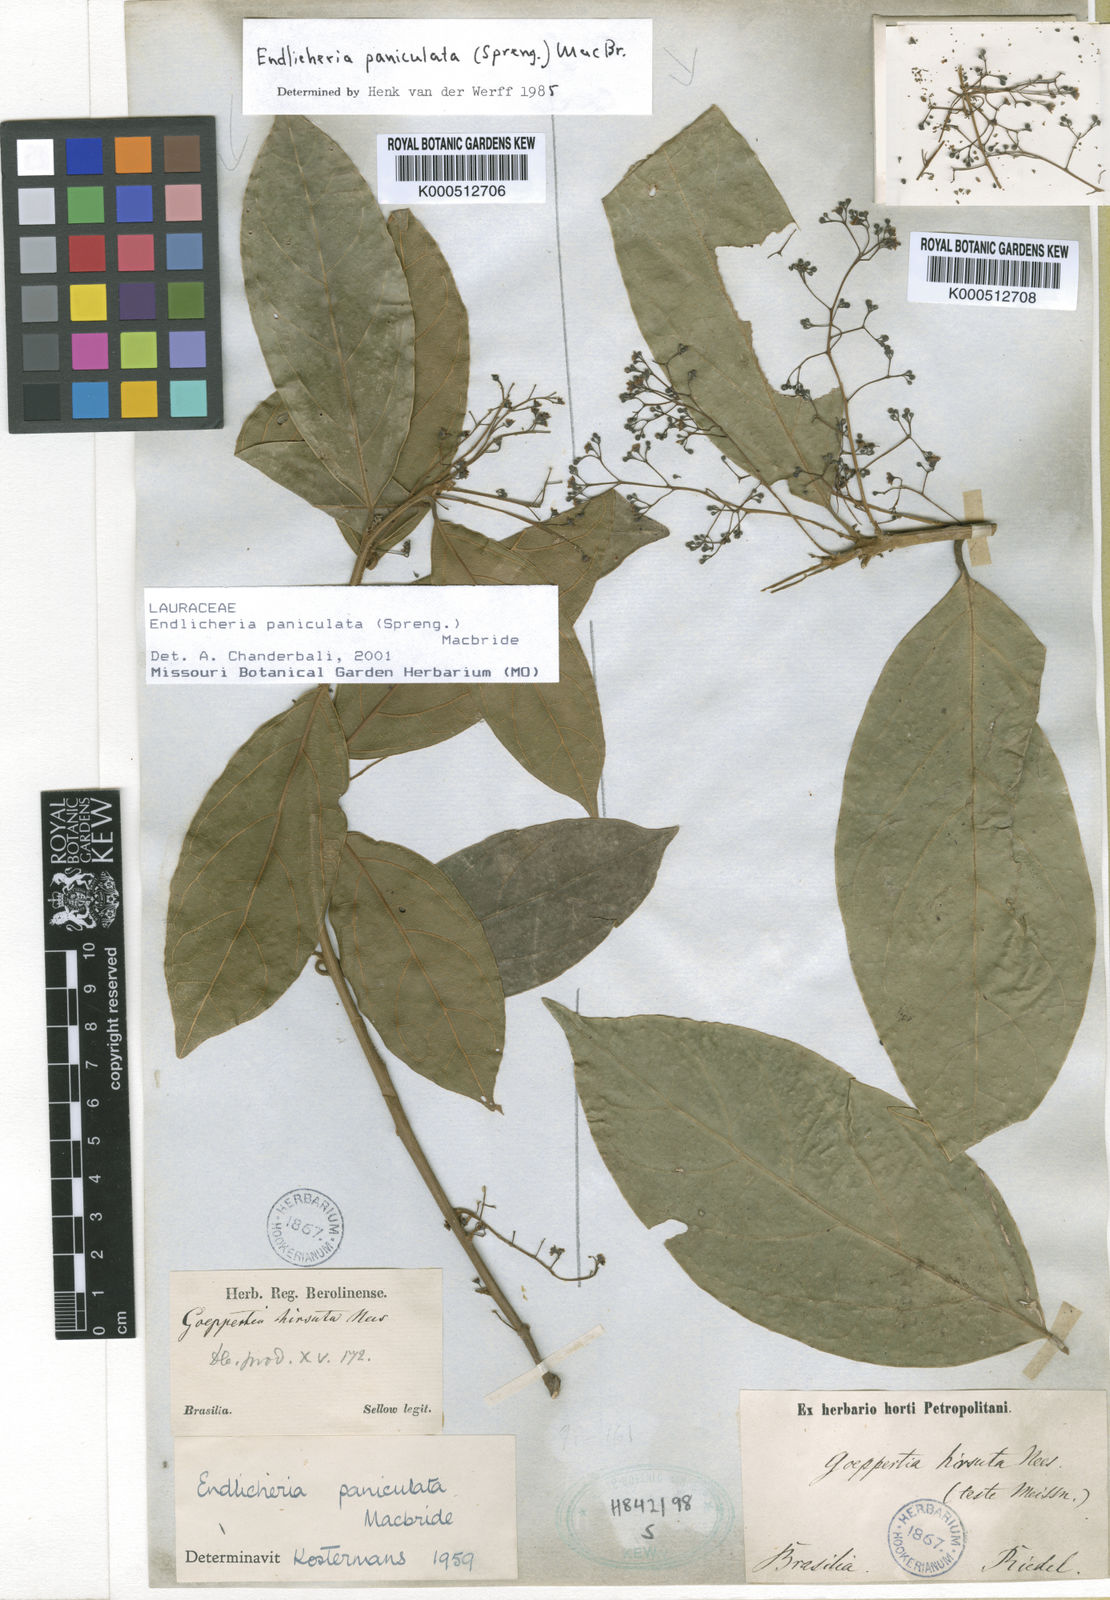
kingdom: Plantae
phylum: Tracheophyta
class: Magnoliopsida
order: Laurales
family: Lauraceae
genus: Endlicheria
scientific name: Endlicheria paniculata
